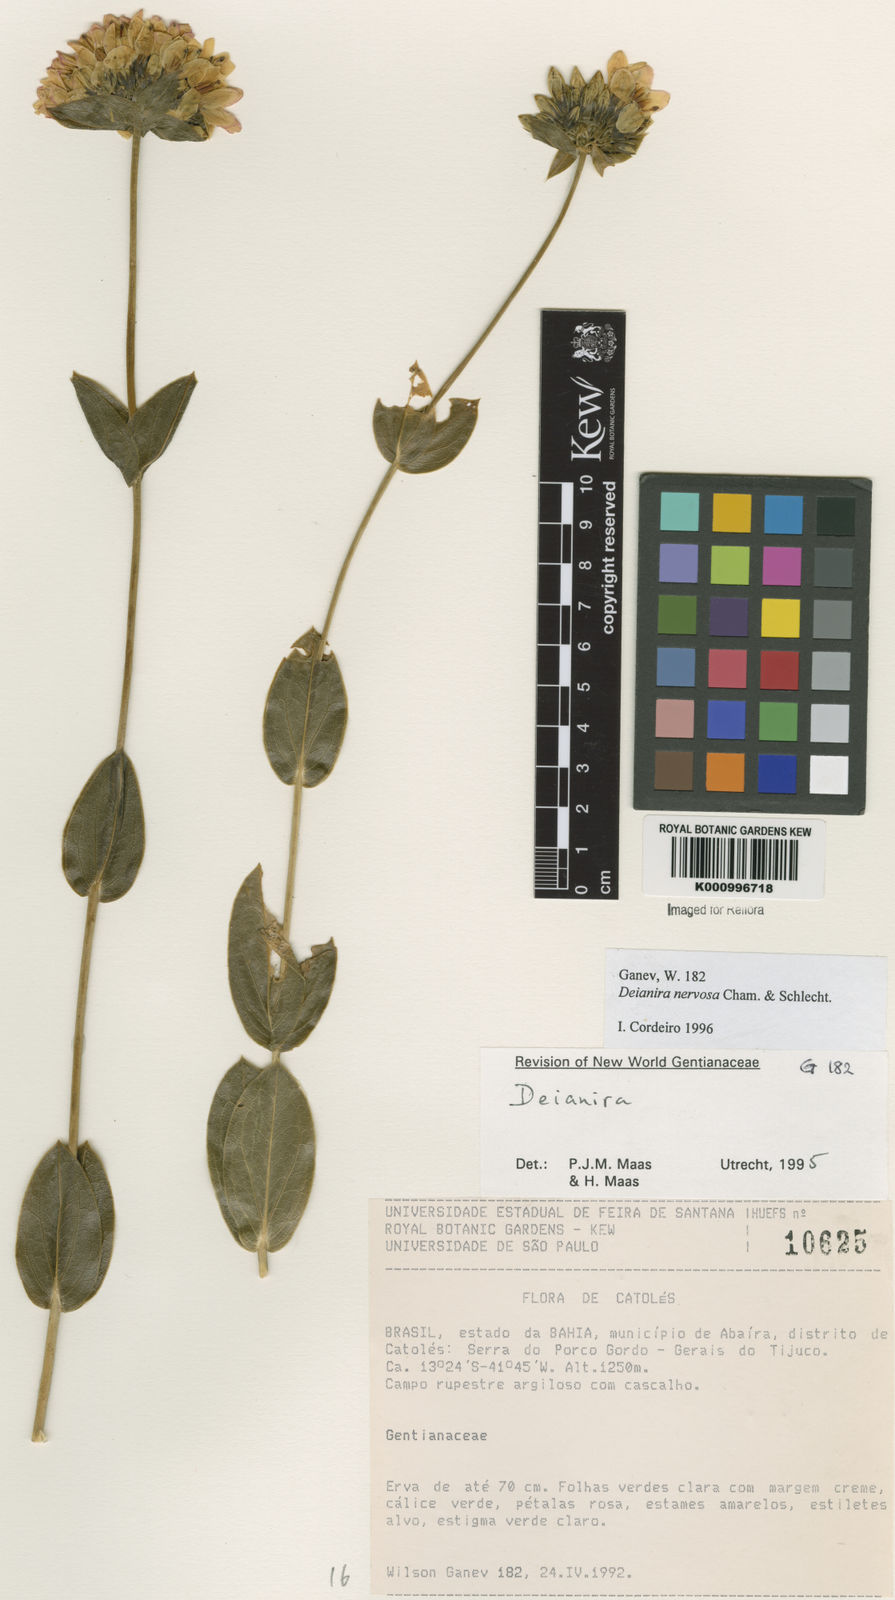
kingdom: Plantae
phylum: Tracheophyta
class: Magnoliopsida
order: Gentianales
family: Gentianaceae
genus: Deianira
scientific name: Deianira nervosa
